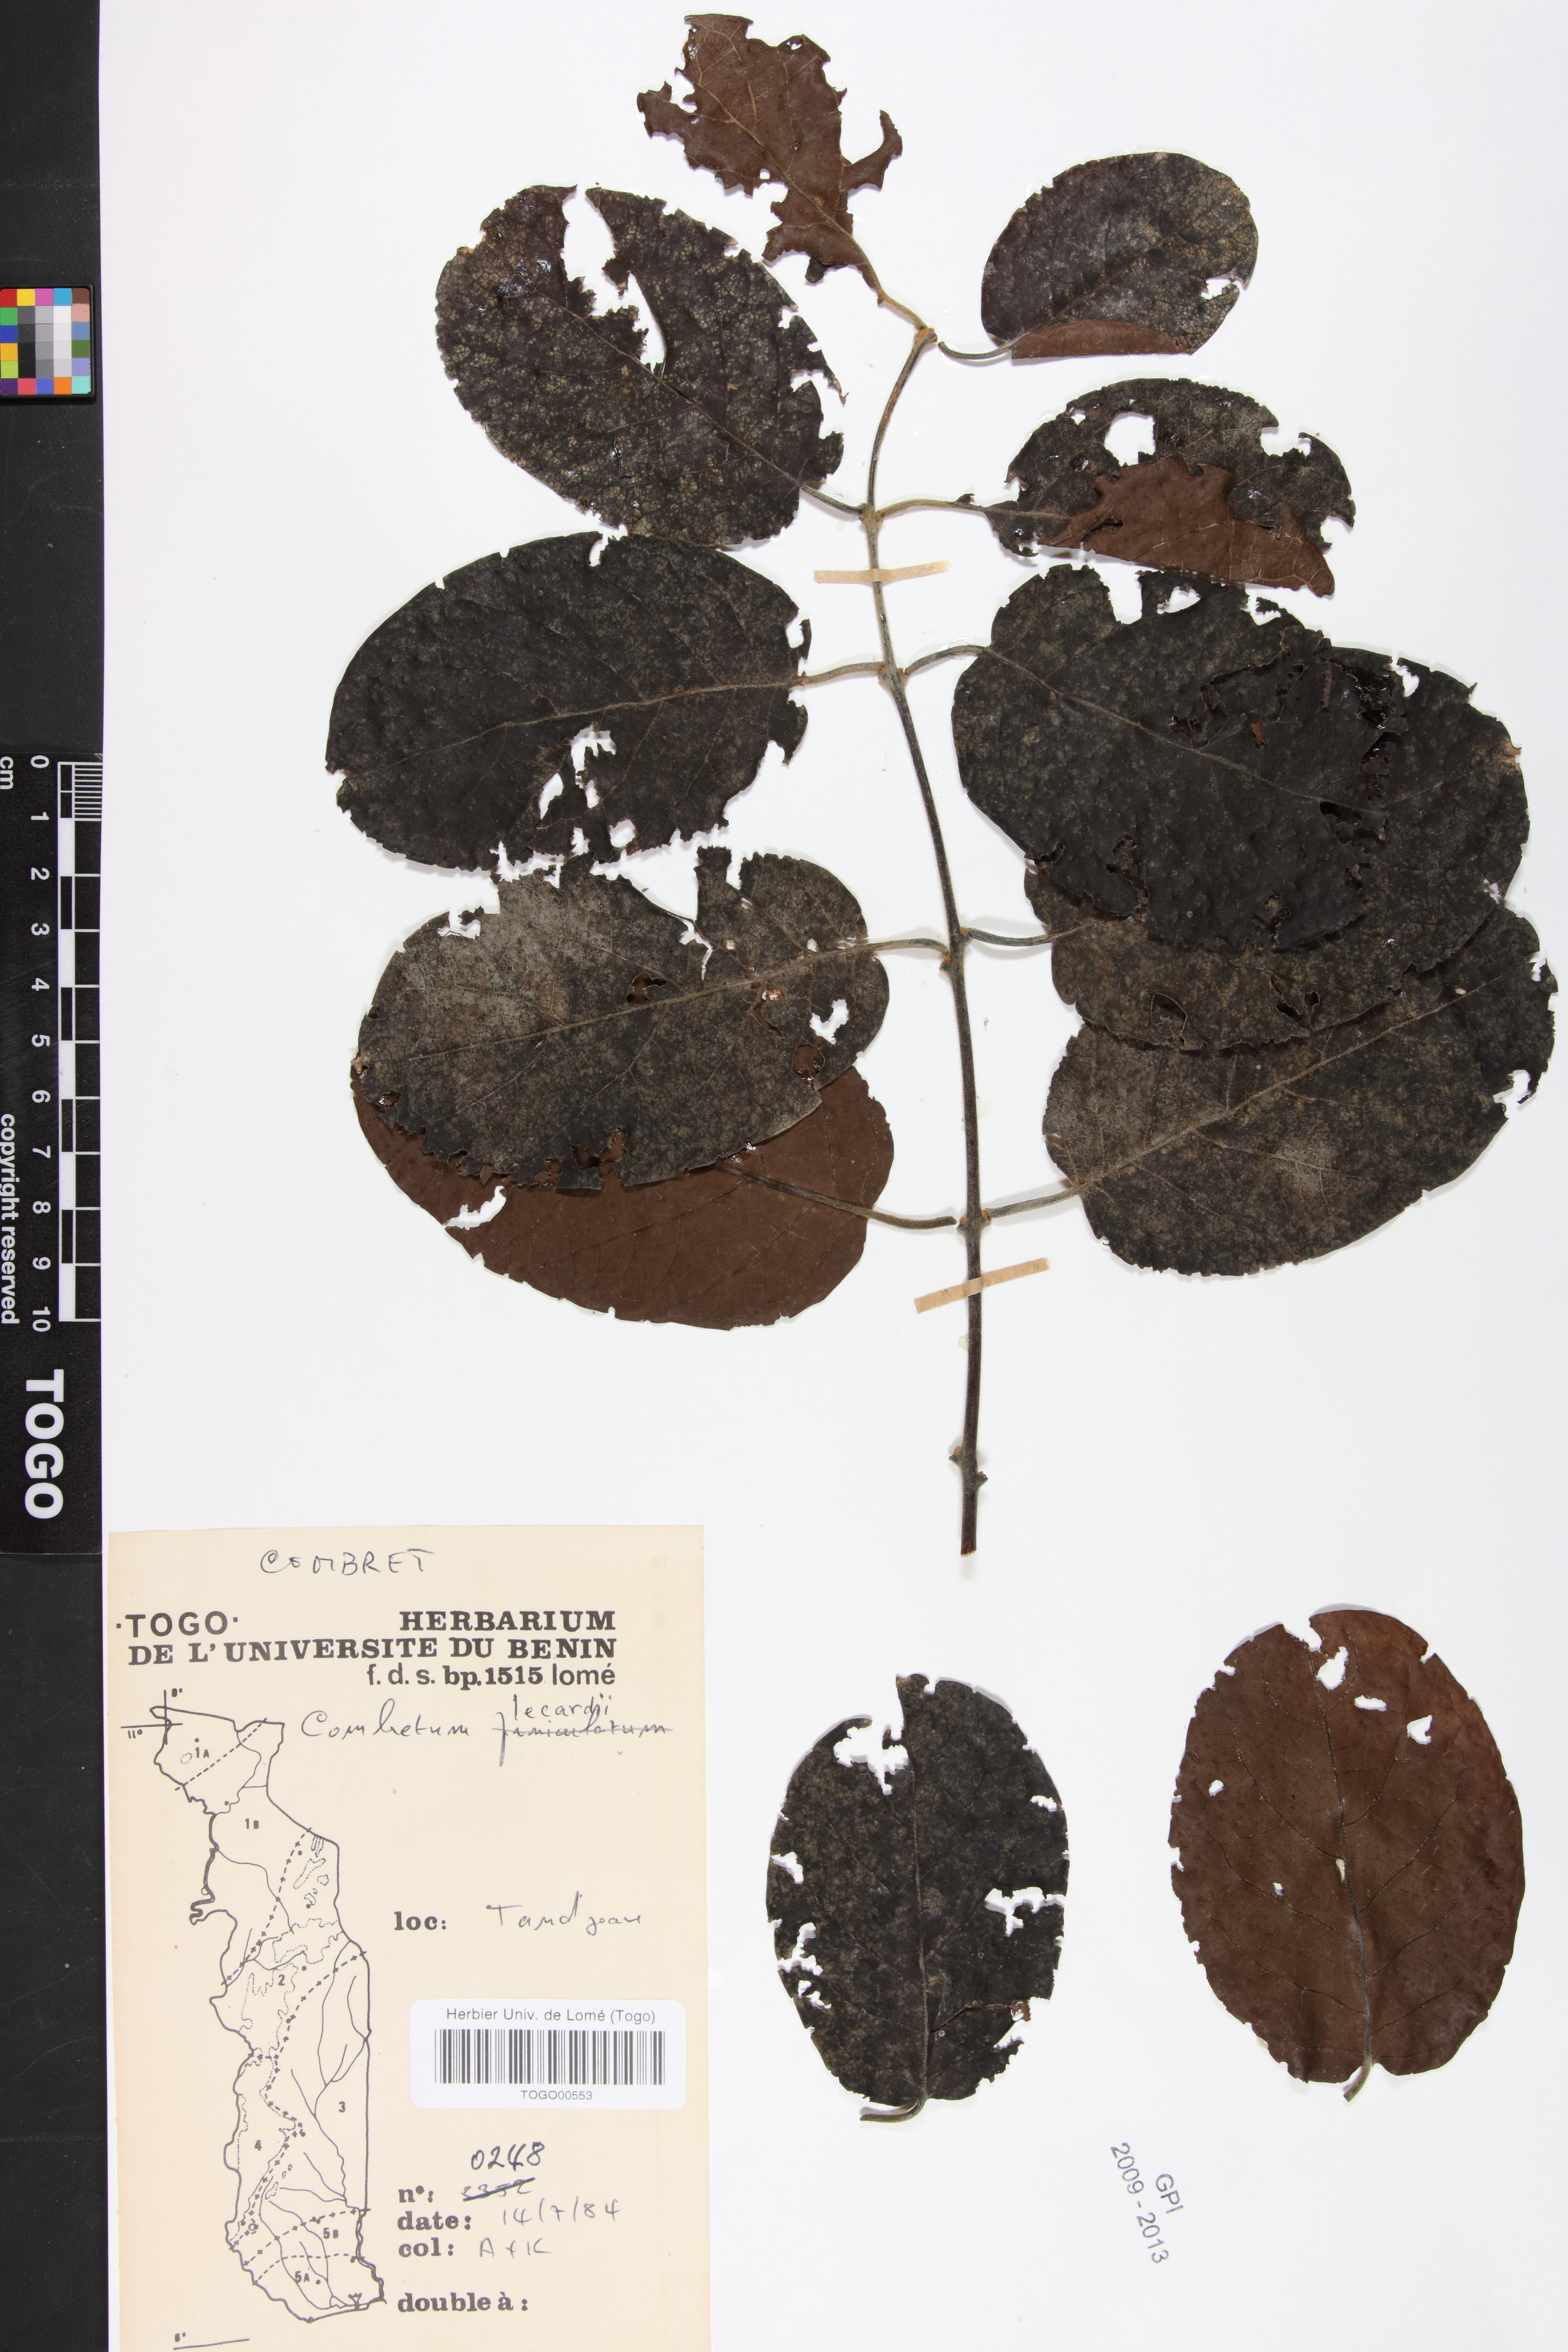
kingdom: Plantae
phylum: Tracheophyta
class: Magnoliopsida
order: Myrtales
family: Combretaceae
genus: Combretum
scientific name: Combretum lecardii
